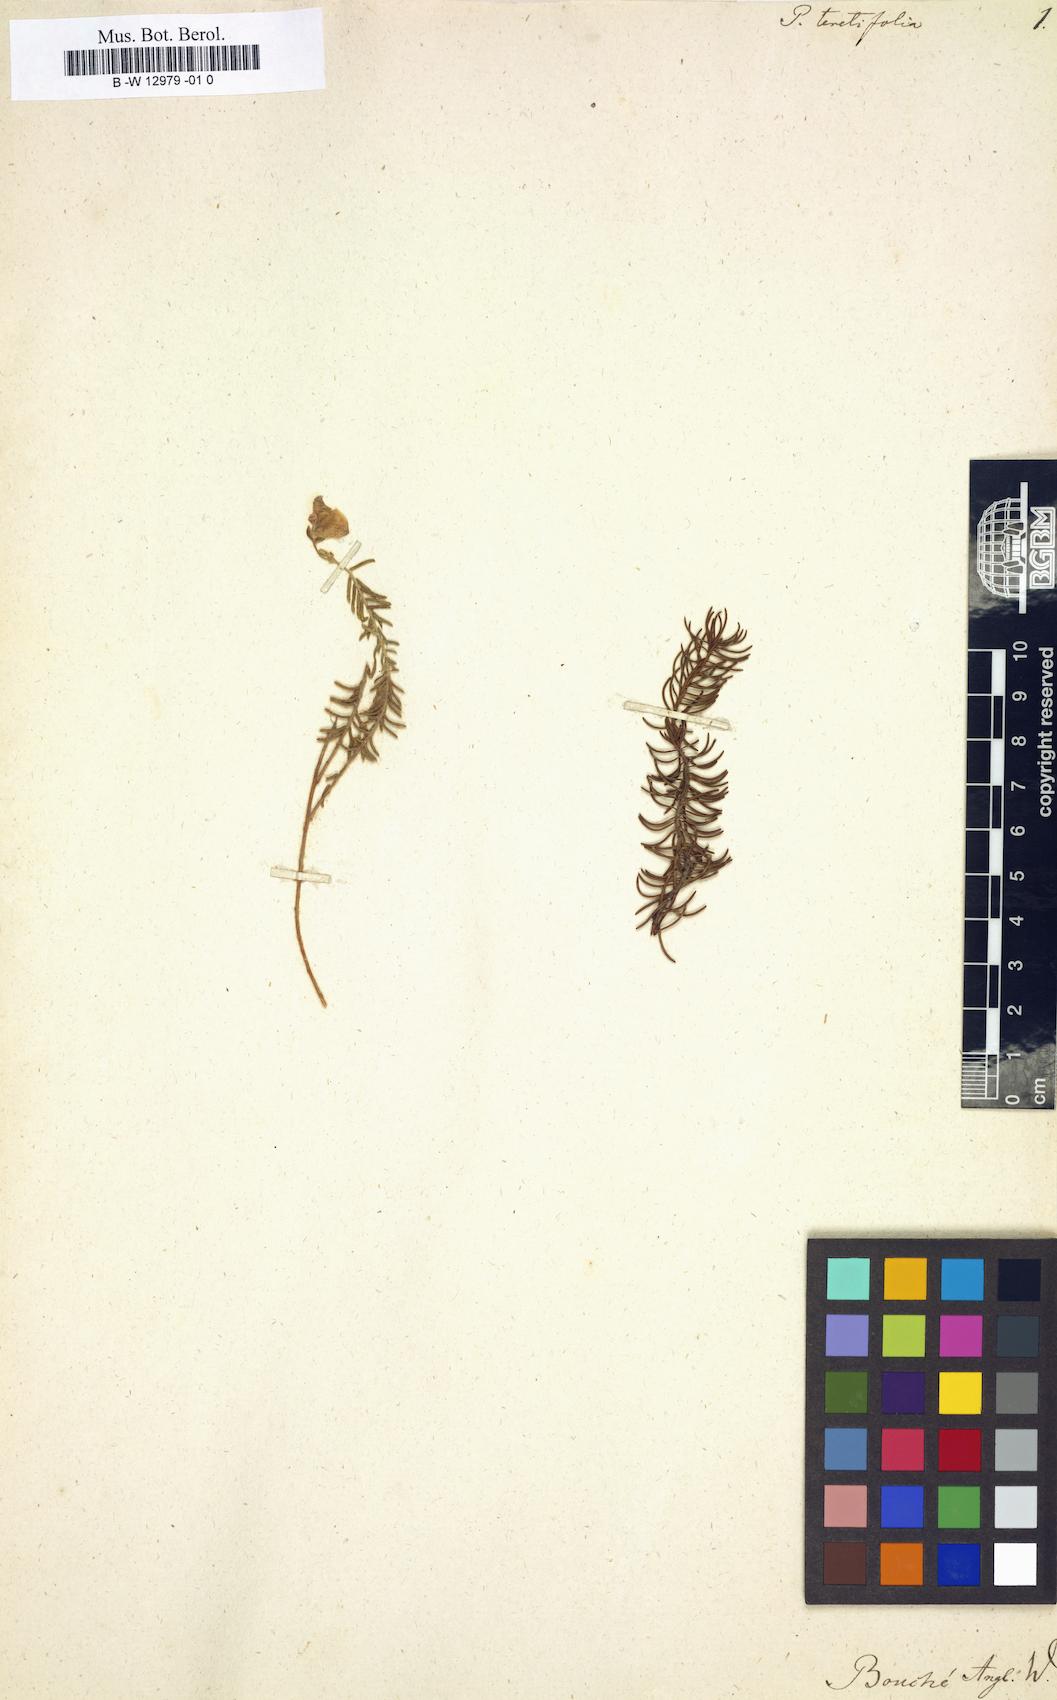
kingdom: Plantae
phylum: Tracheophyta
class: Magnoliopsida
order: Fabales
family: Polygalaceae
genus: Polygala
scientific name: Polygala teretifolia
